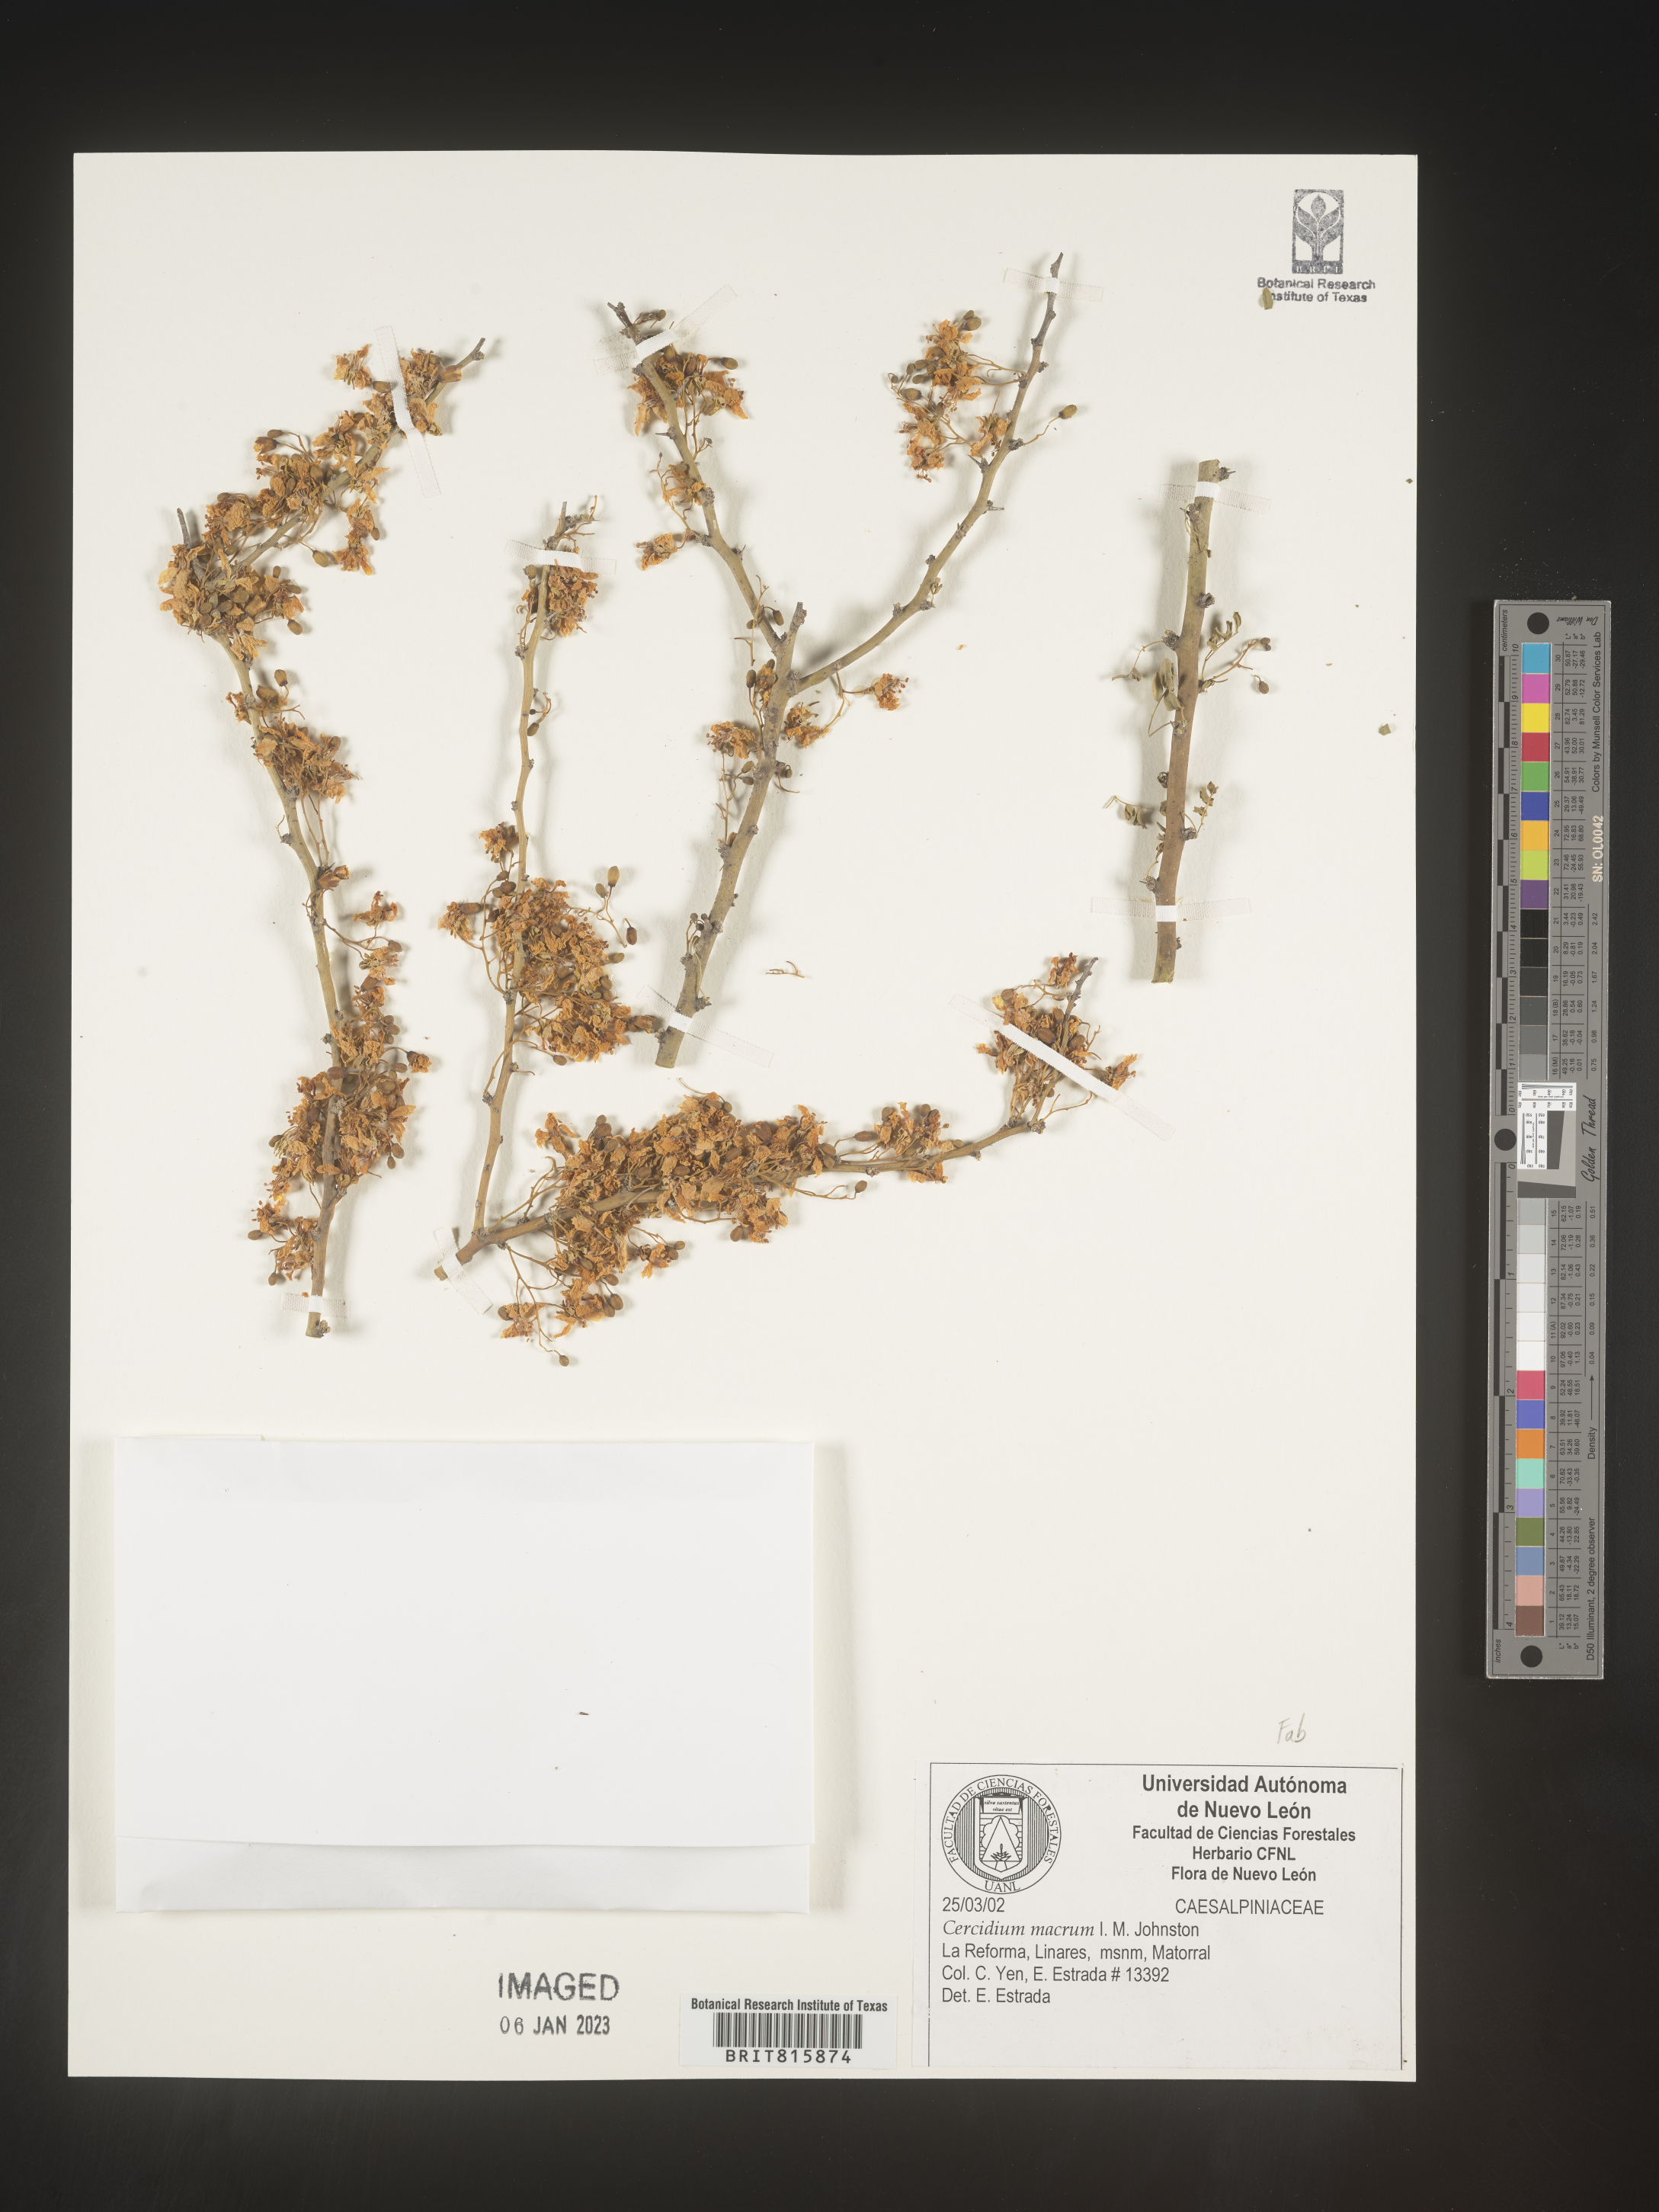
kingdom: Plantae
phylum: Chlorophyta
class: Chlorophyceae
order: Volvocales
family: Chlamydomonadaceae
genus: Cercidium
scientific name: Cercidium
